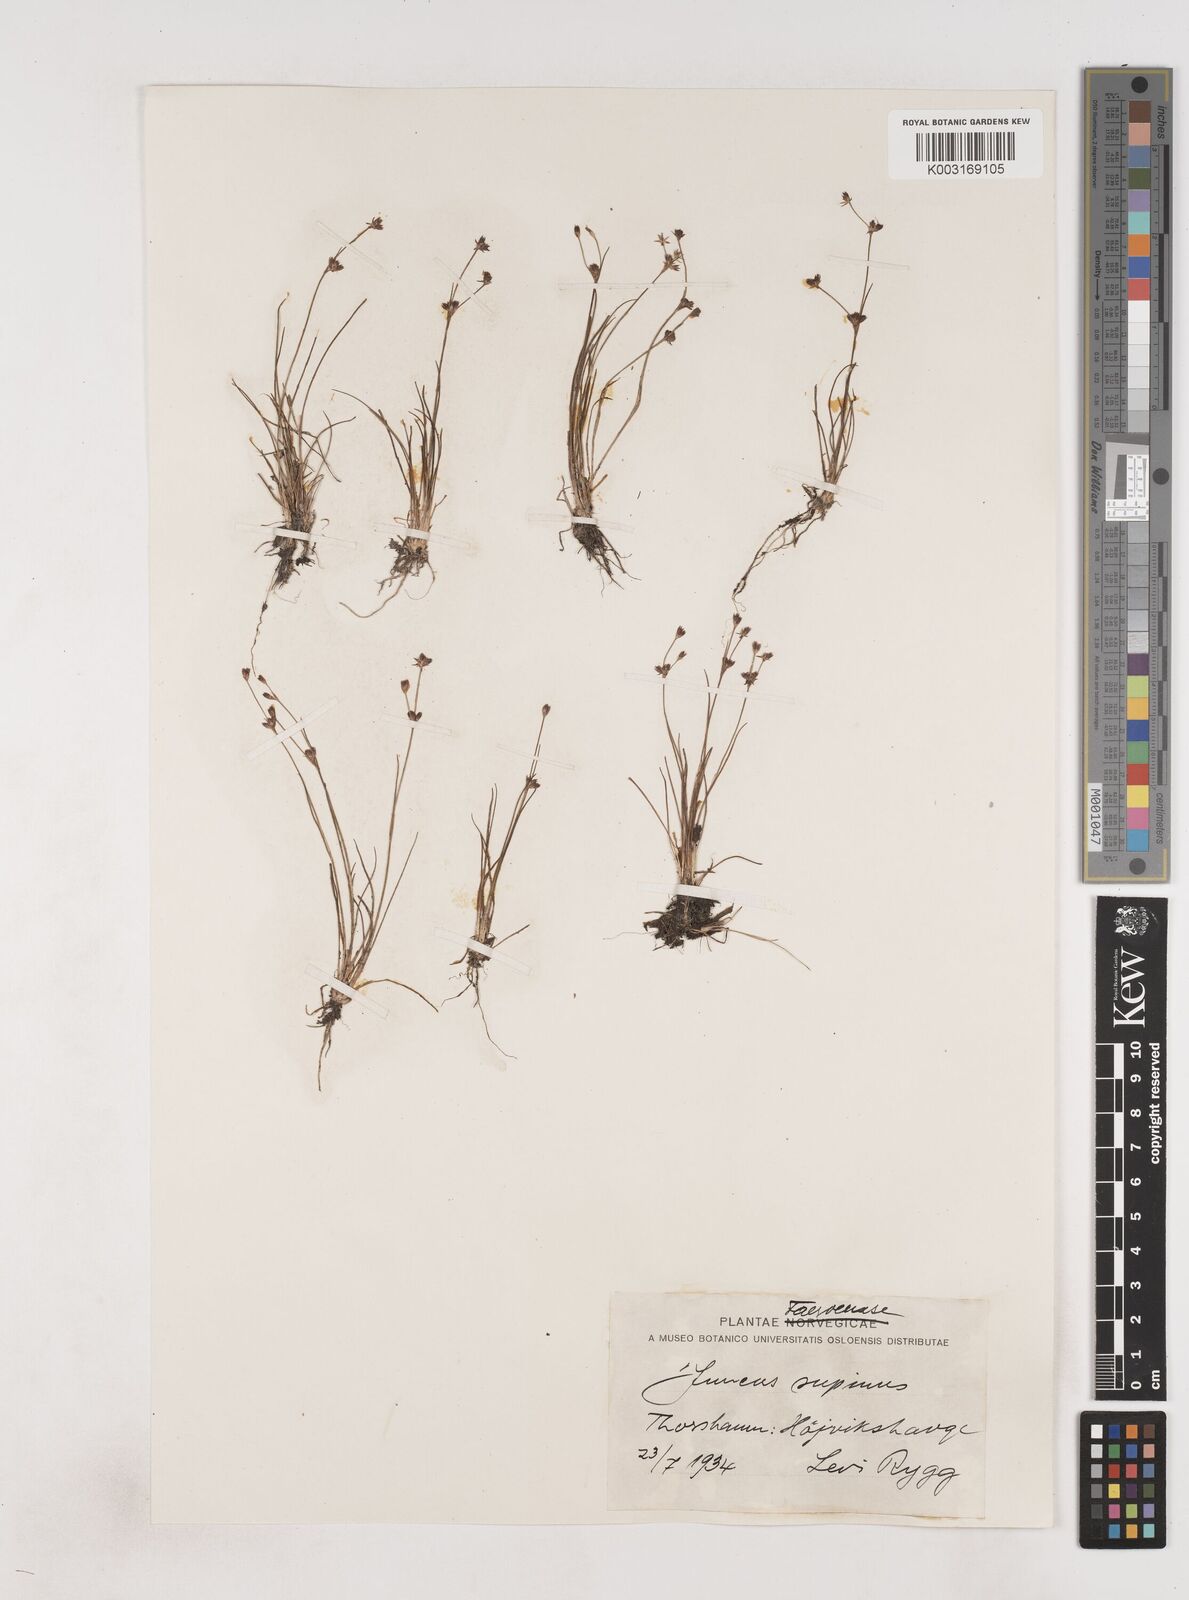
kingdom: Plantae
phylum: Tracheophyta
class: Liliopsida
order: Poales
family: Juncaceae
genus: Juncus
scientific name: Juncus bulbosus
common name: Bulbous rush
